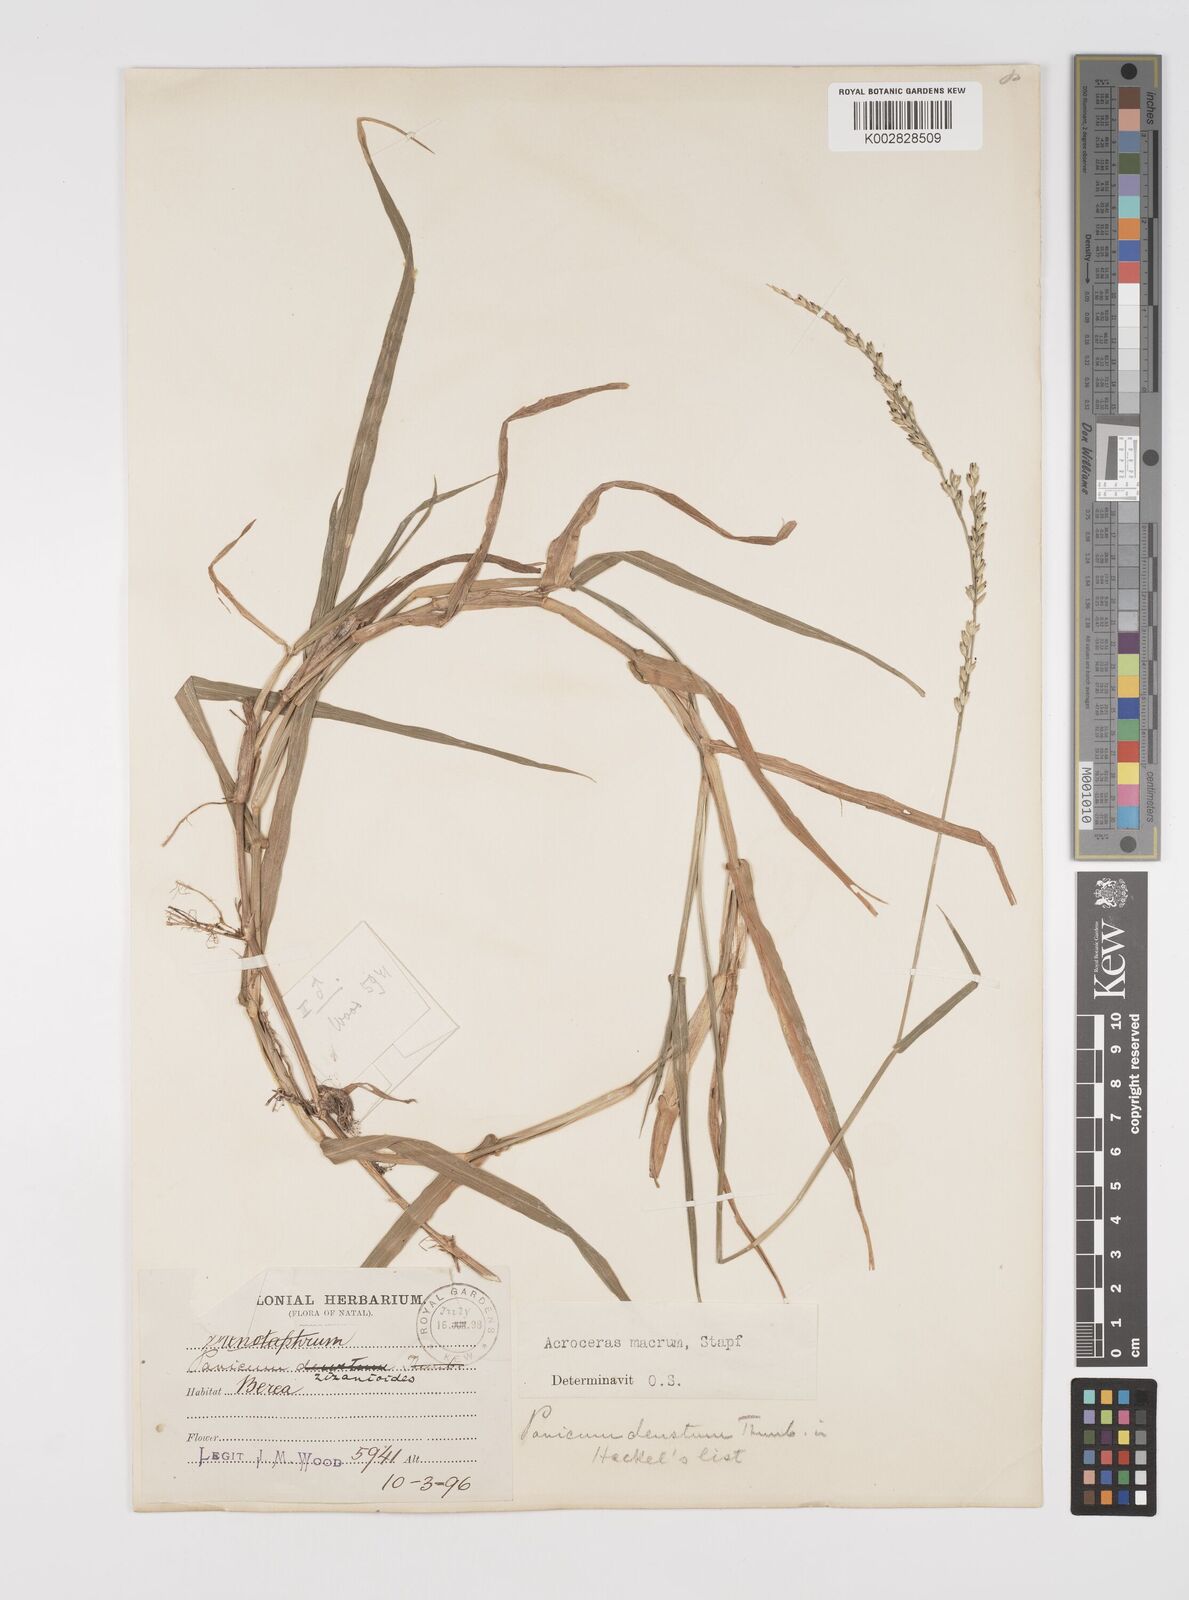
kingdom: Plantae
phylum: Tracheophyta
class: Liliopsida
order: Poales
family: Poaceae
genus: Acroceras
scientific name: Acroceras macrum
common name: Nyl grass
